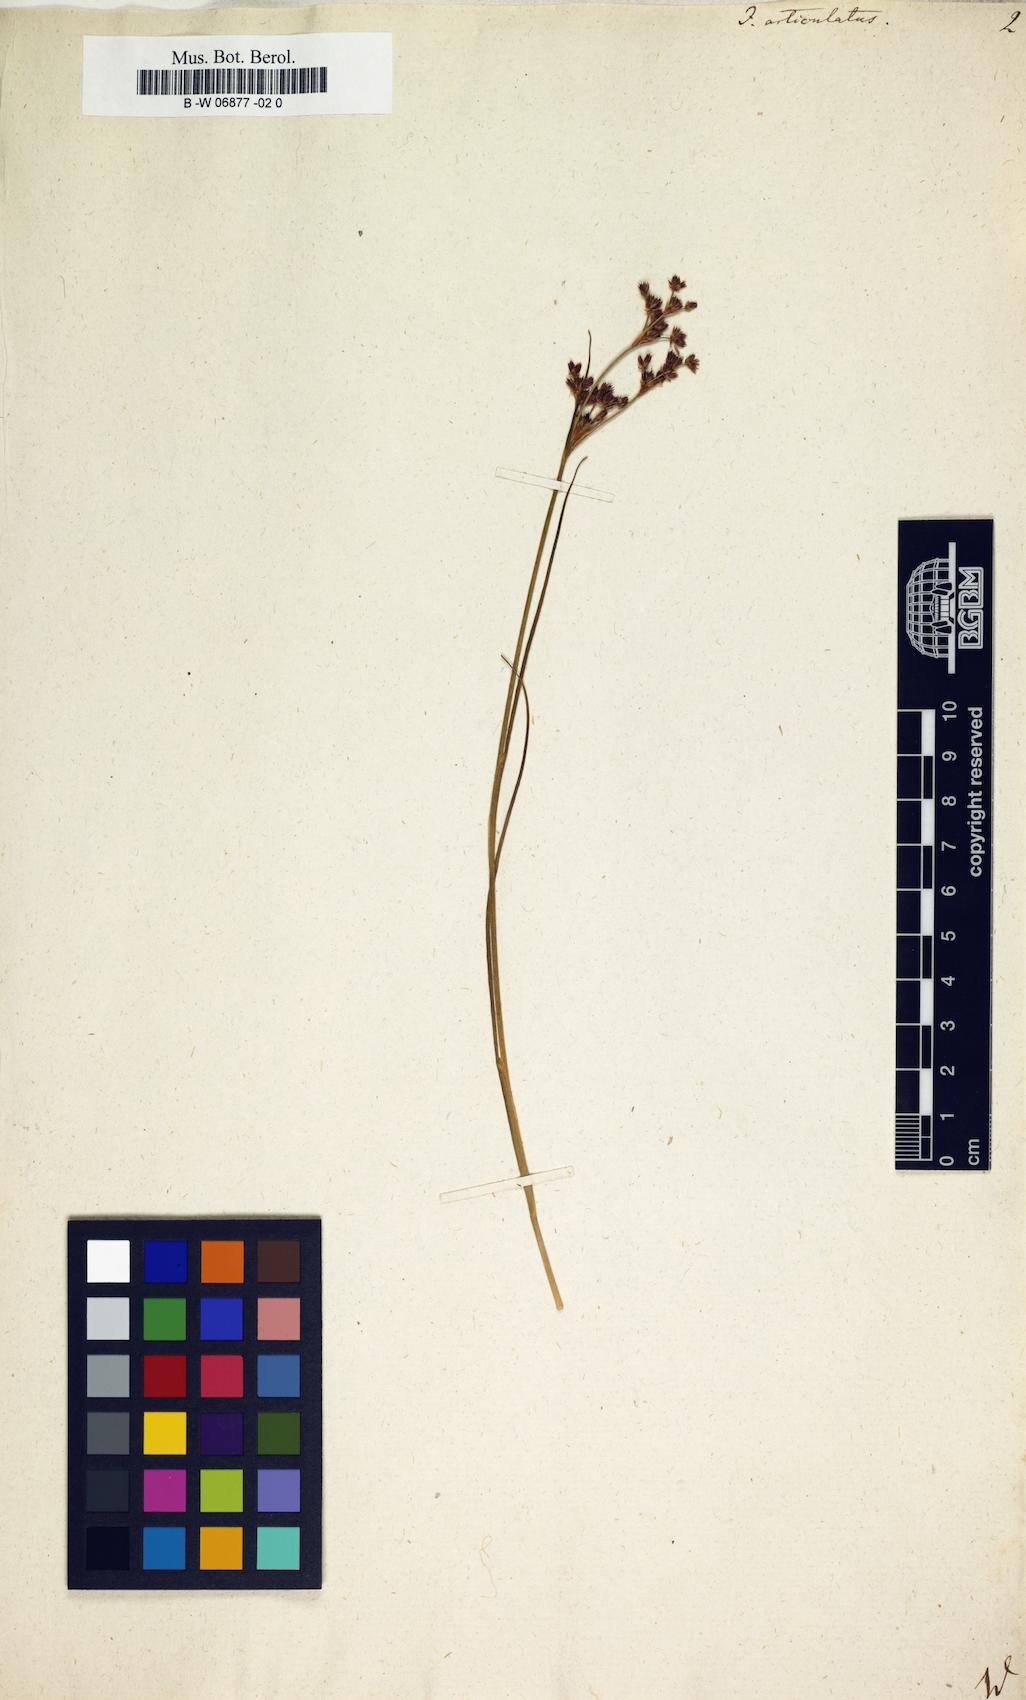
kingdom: Plantae
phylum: Tracheophyta
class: Liliopsida
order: Poales
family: Juncaceae
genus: Juncus
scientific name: Juncus articulatus
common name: Jointed rush
